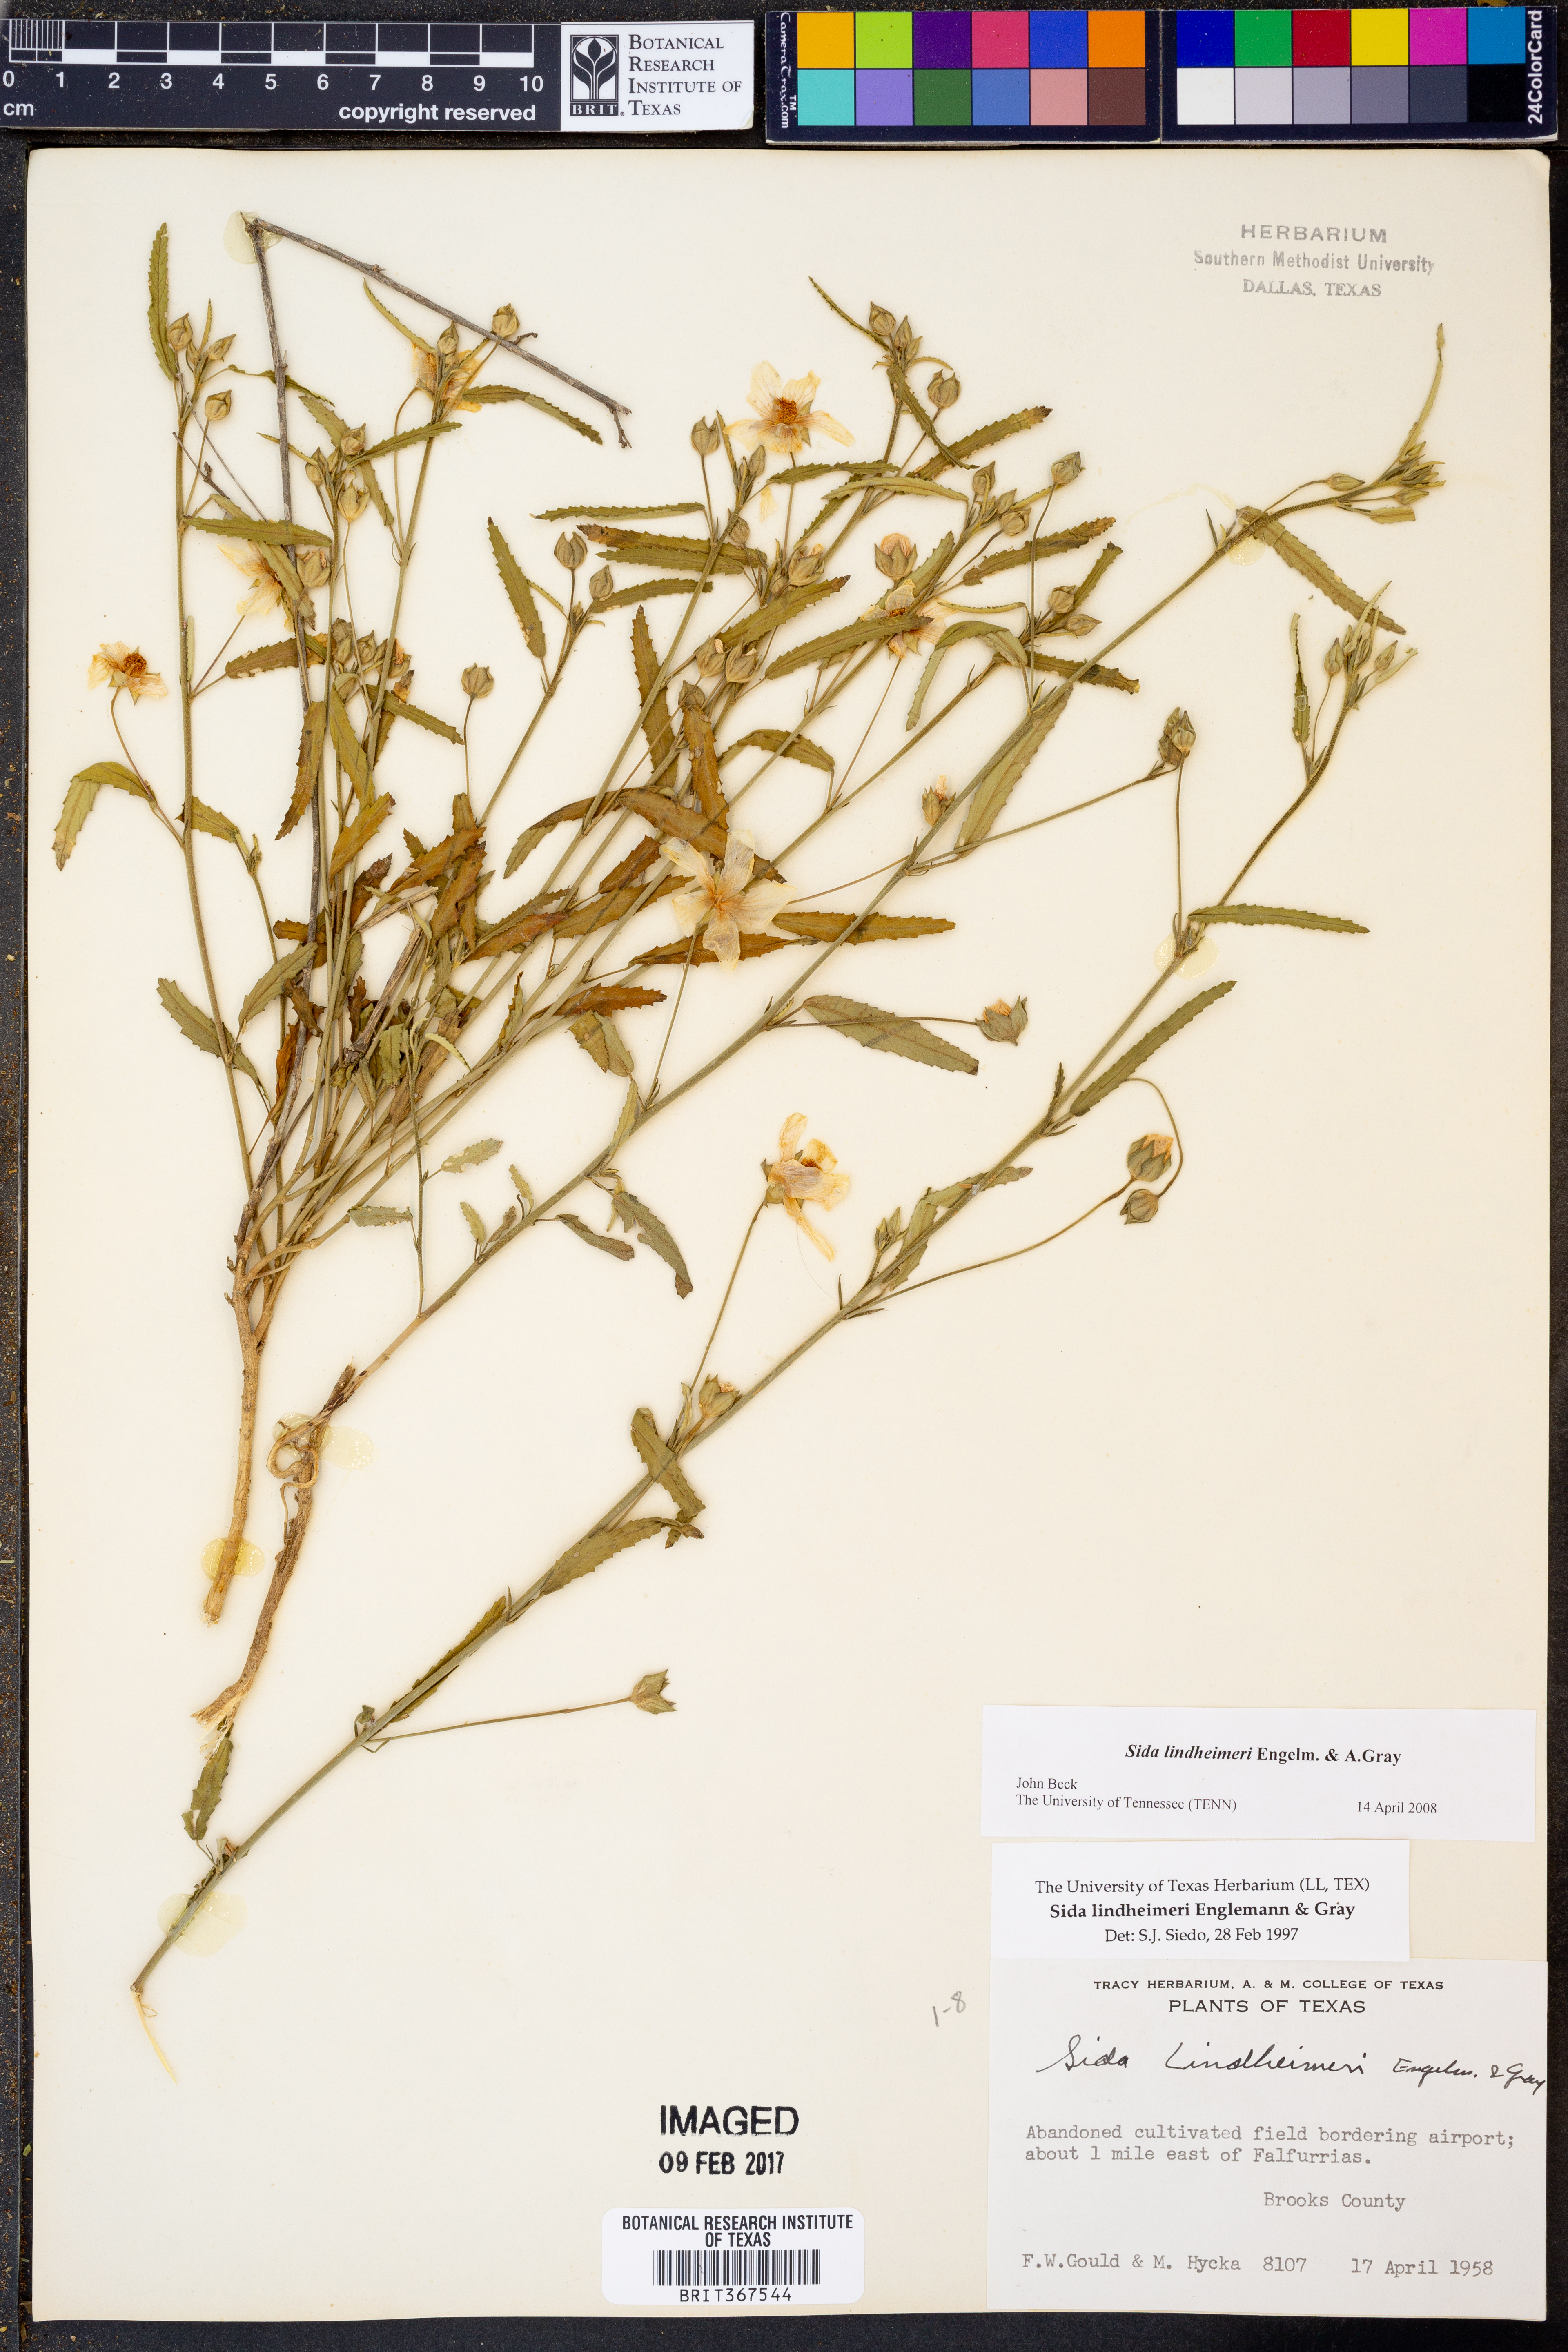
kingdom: Plantae
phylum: Tracheophyta
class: Magnoliopsida
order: Malvales
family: Malvaceae
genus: Sida
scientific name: Sida lindheimeri
